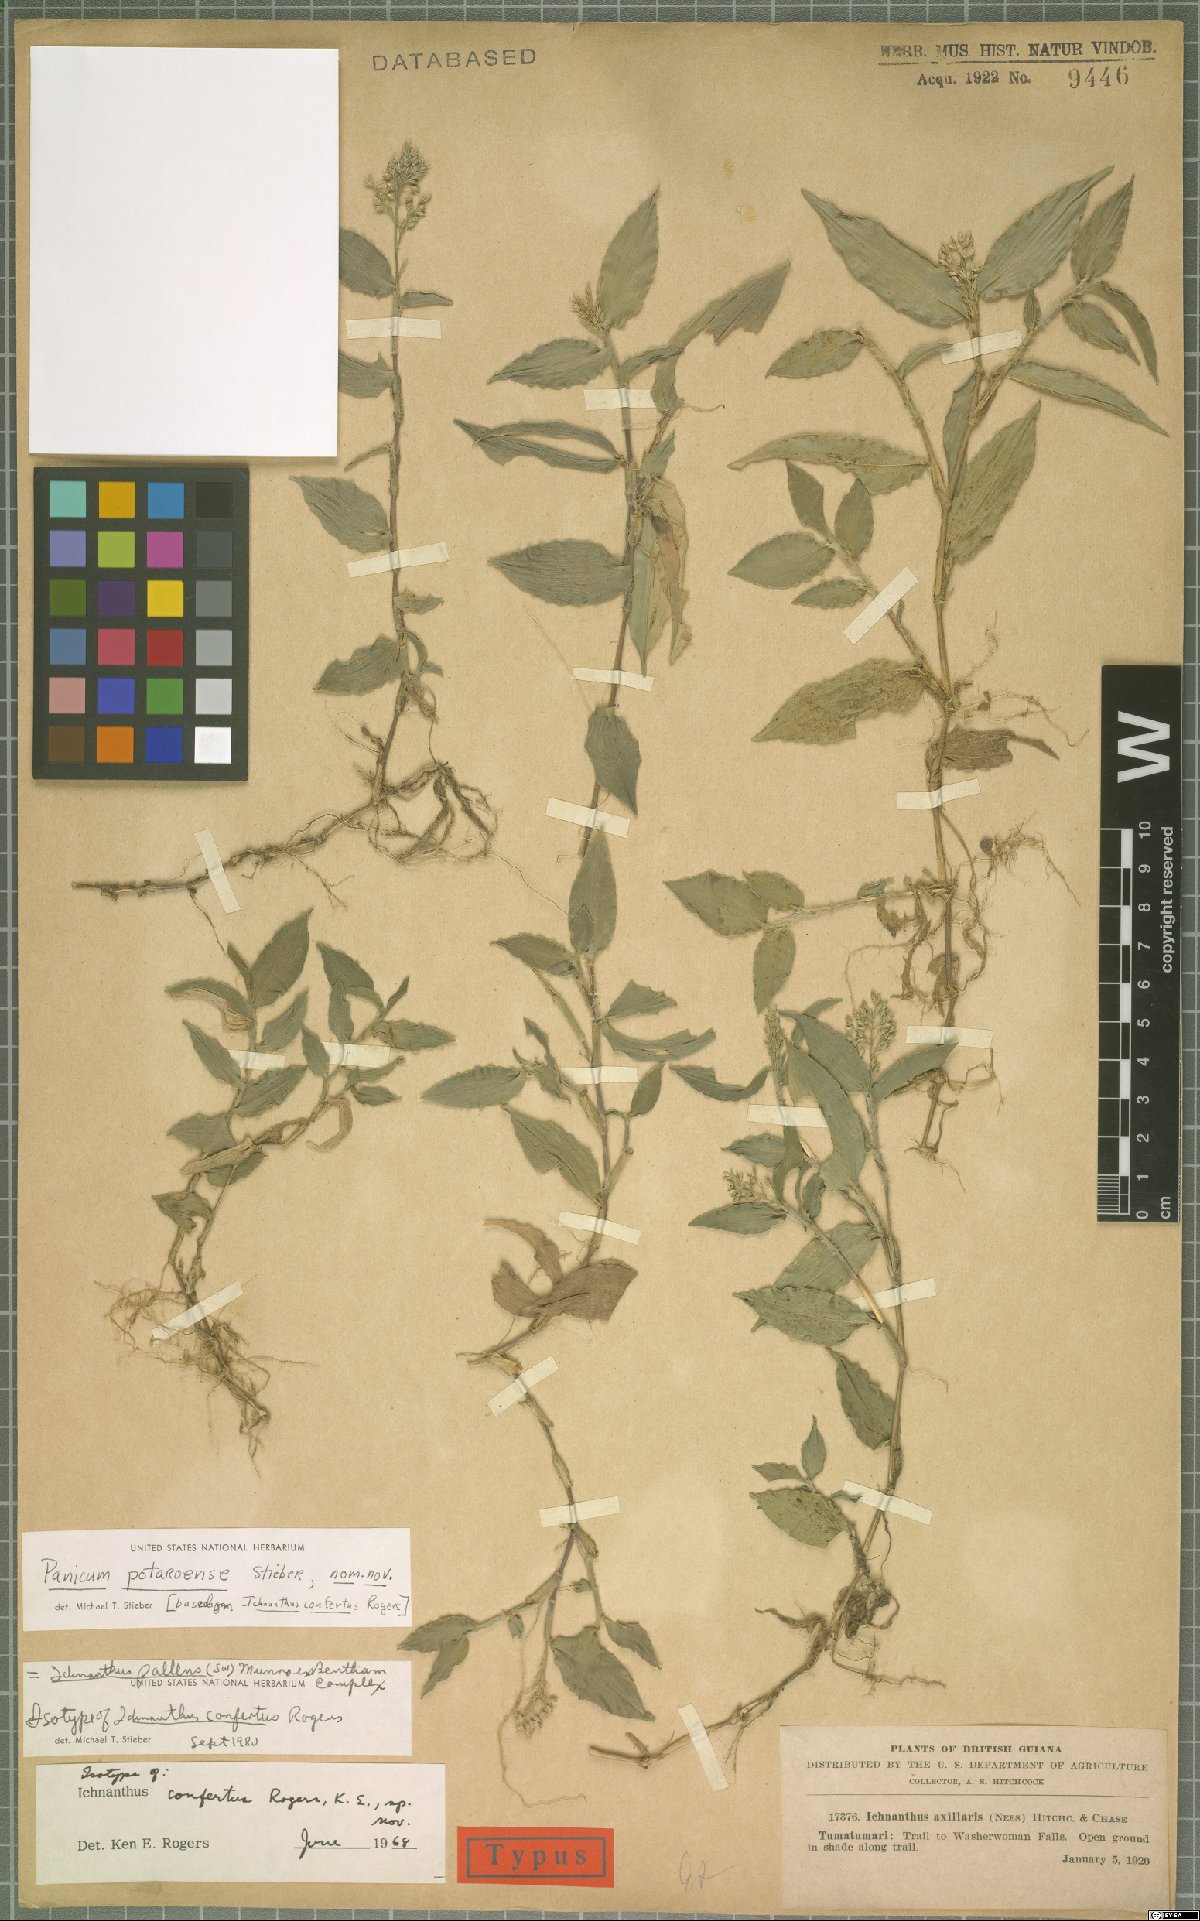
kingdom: Plantae
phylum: Tracheophyta
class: Liliopsida
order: Poales
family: Poaceae
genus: Ichnanthus
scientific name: Ichnanthus pallens
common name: Water grass
